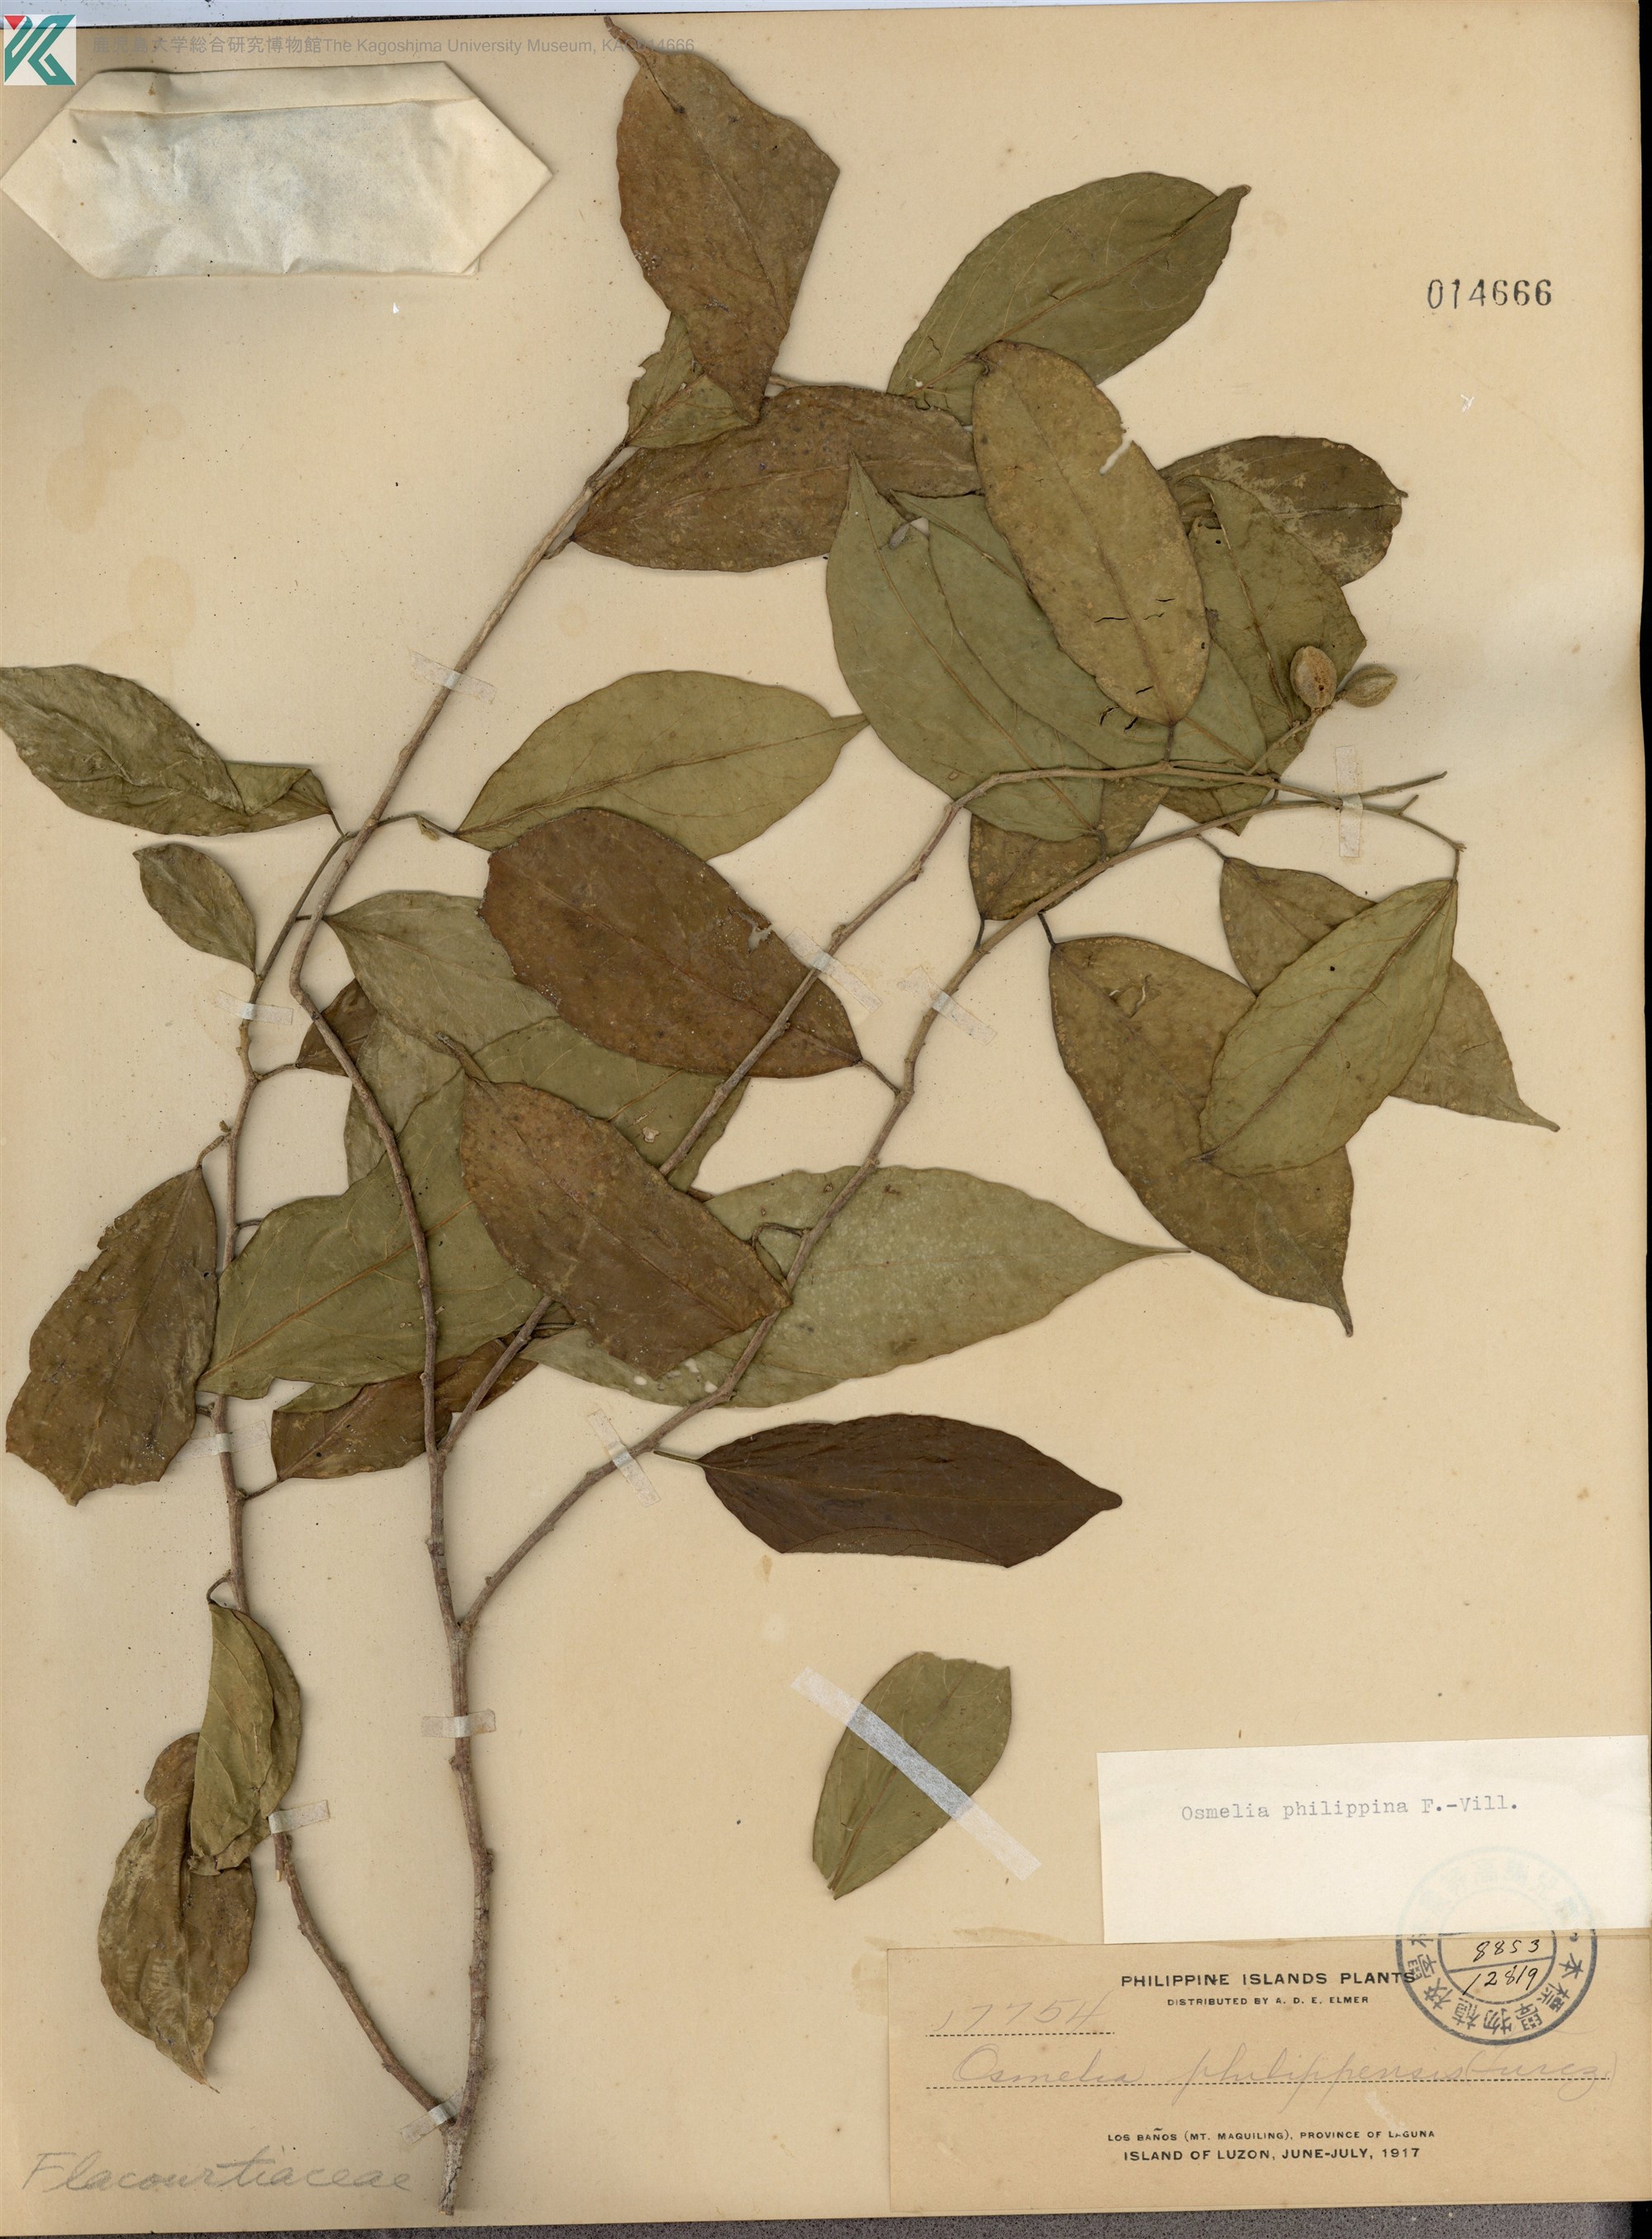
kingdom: Plantae
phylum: Tracheophyta
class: Magnoliopsida
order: Malpighiales
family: Salicaceae
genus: Osmelia
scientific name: Osmelia philippina
